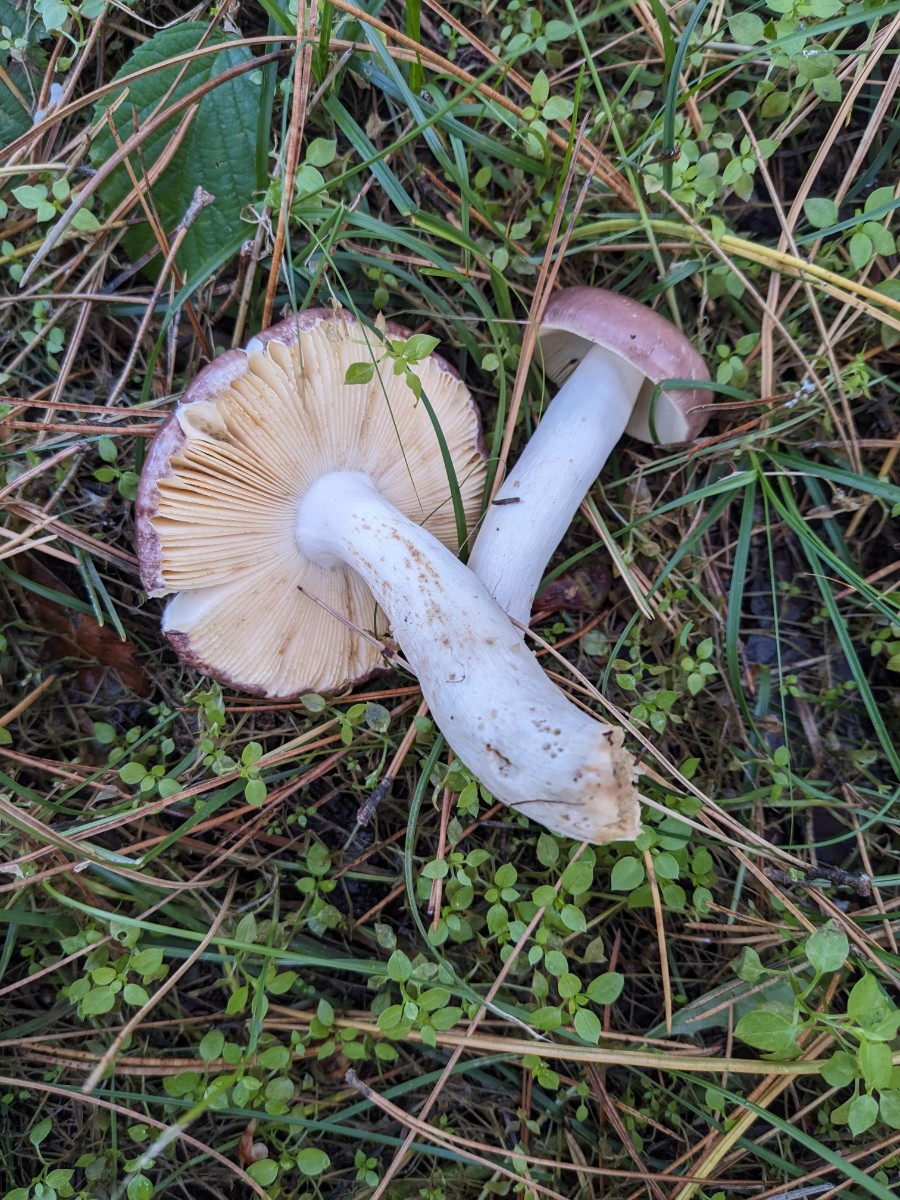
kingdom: Fungi
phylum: Basidiomycota
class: Agaricomycetes
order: Russulales
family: Russulaceae
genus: Russula
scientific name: Russula caerulea
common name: puklet skørhat
